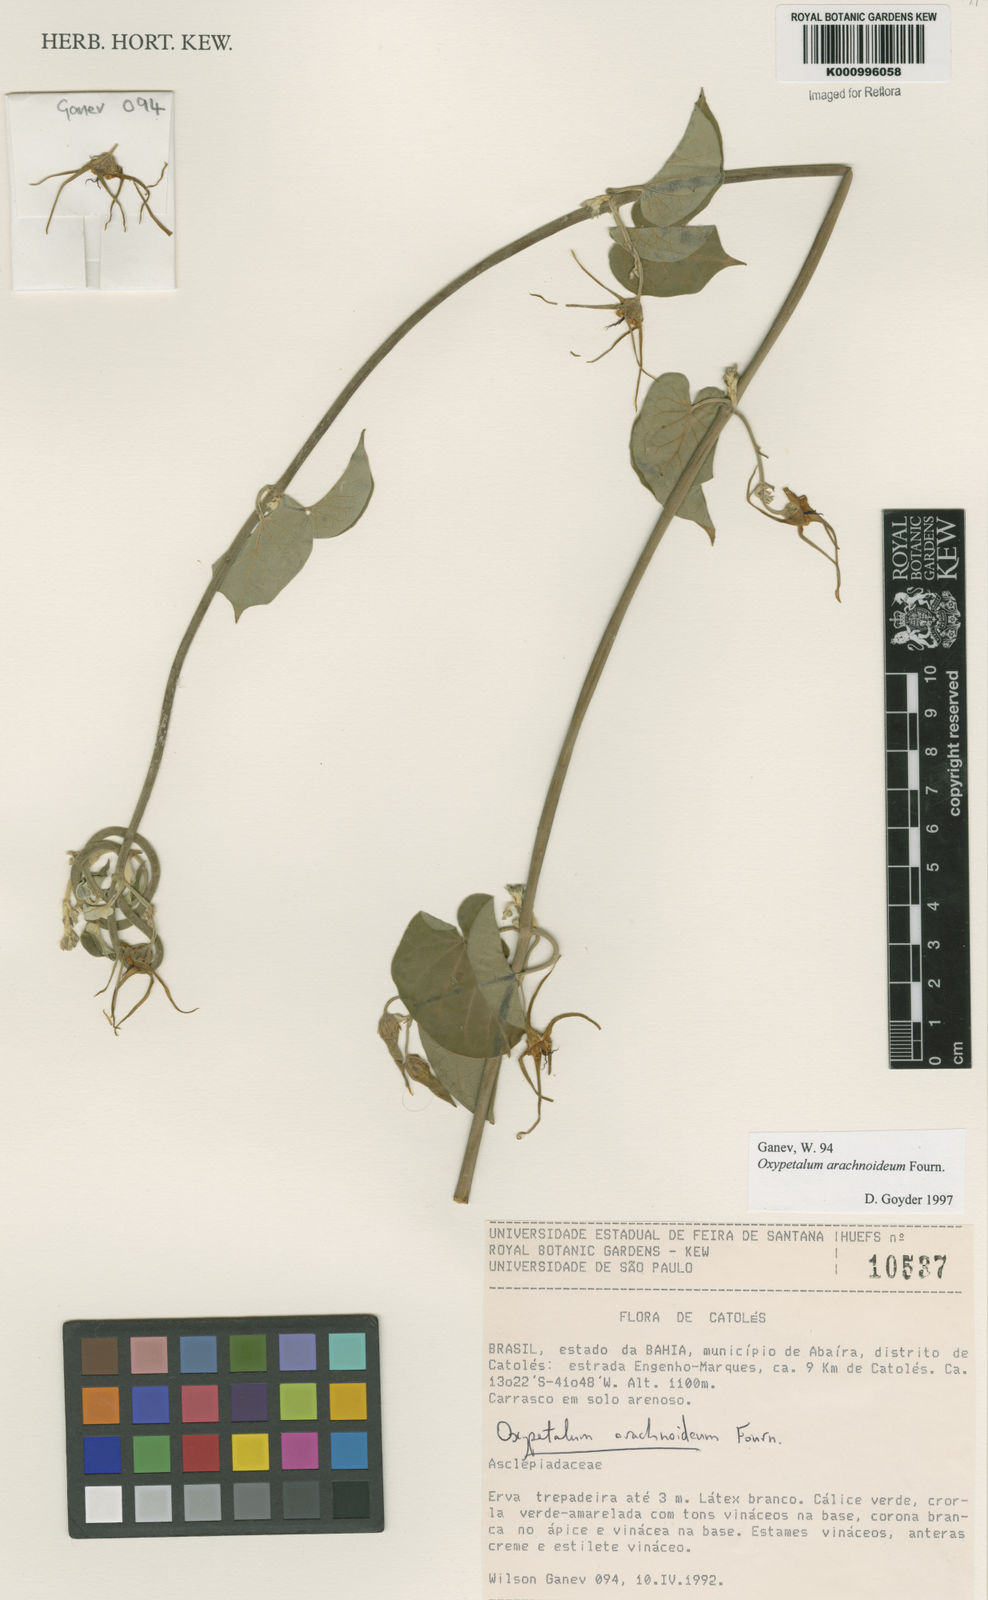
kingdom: Plantae
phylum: Tracheophyta
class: Magnoliopsida
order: Gentianales
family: Apocynaceae
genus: Oxypetalum
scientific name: Oxypetalum arachnoideum
